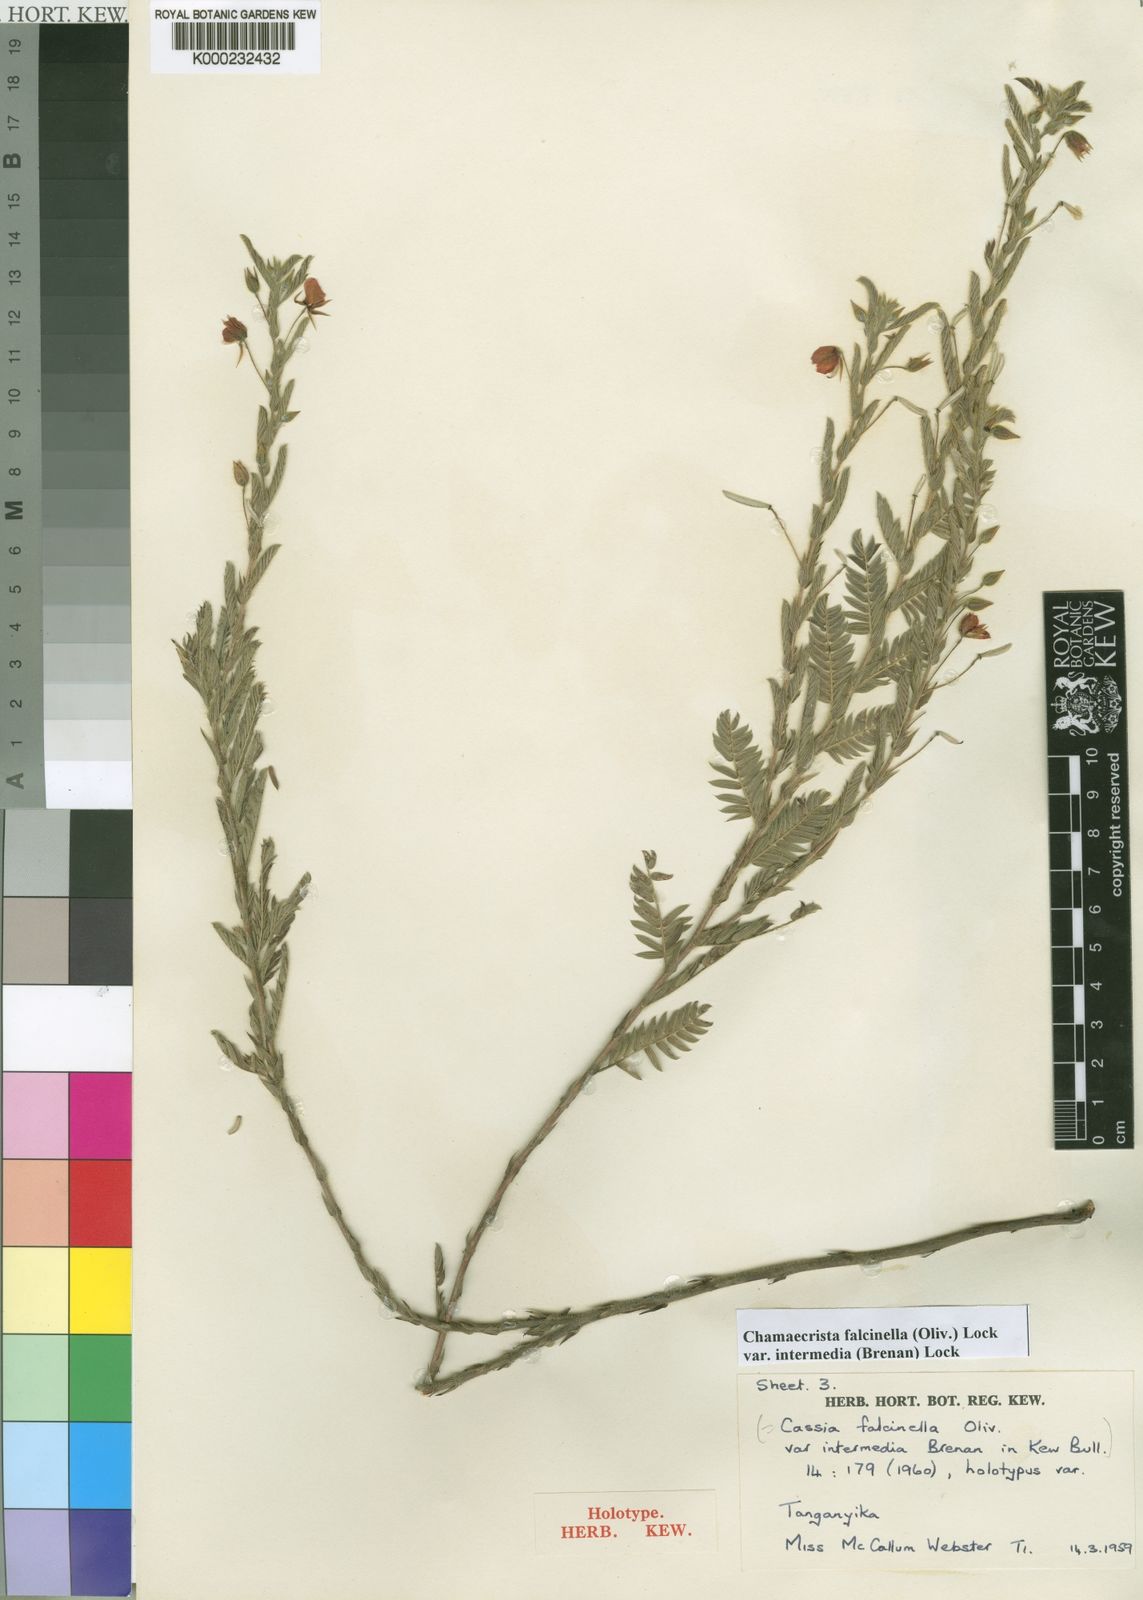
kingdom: Plantae
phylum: Tracheophyta
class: Magnoliopsida
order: Fabales
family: Fabaceae
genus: Chamaecrista
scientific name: Chamaecrista falcinella
